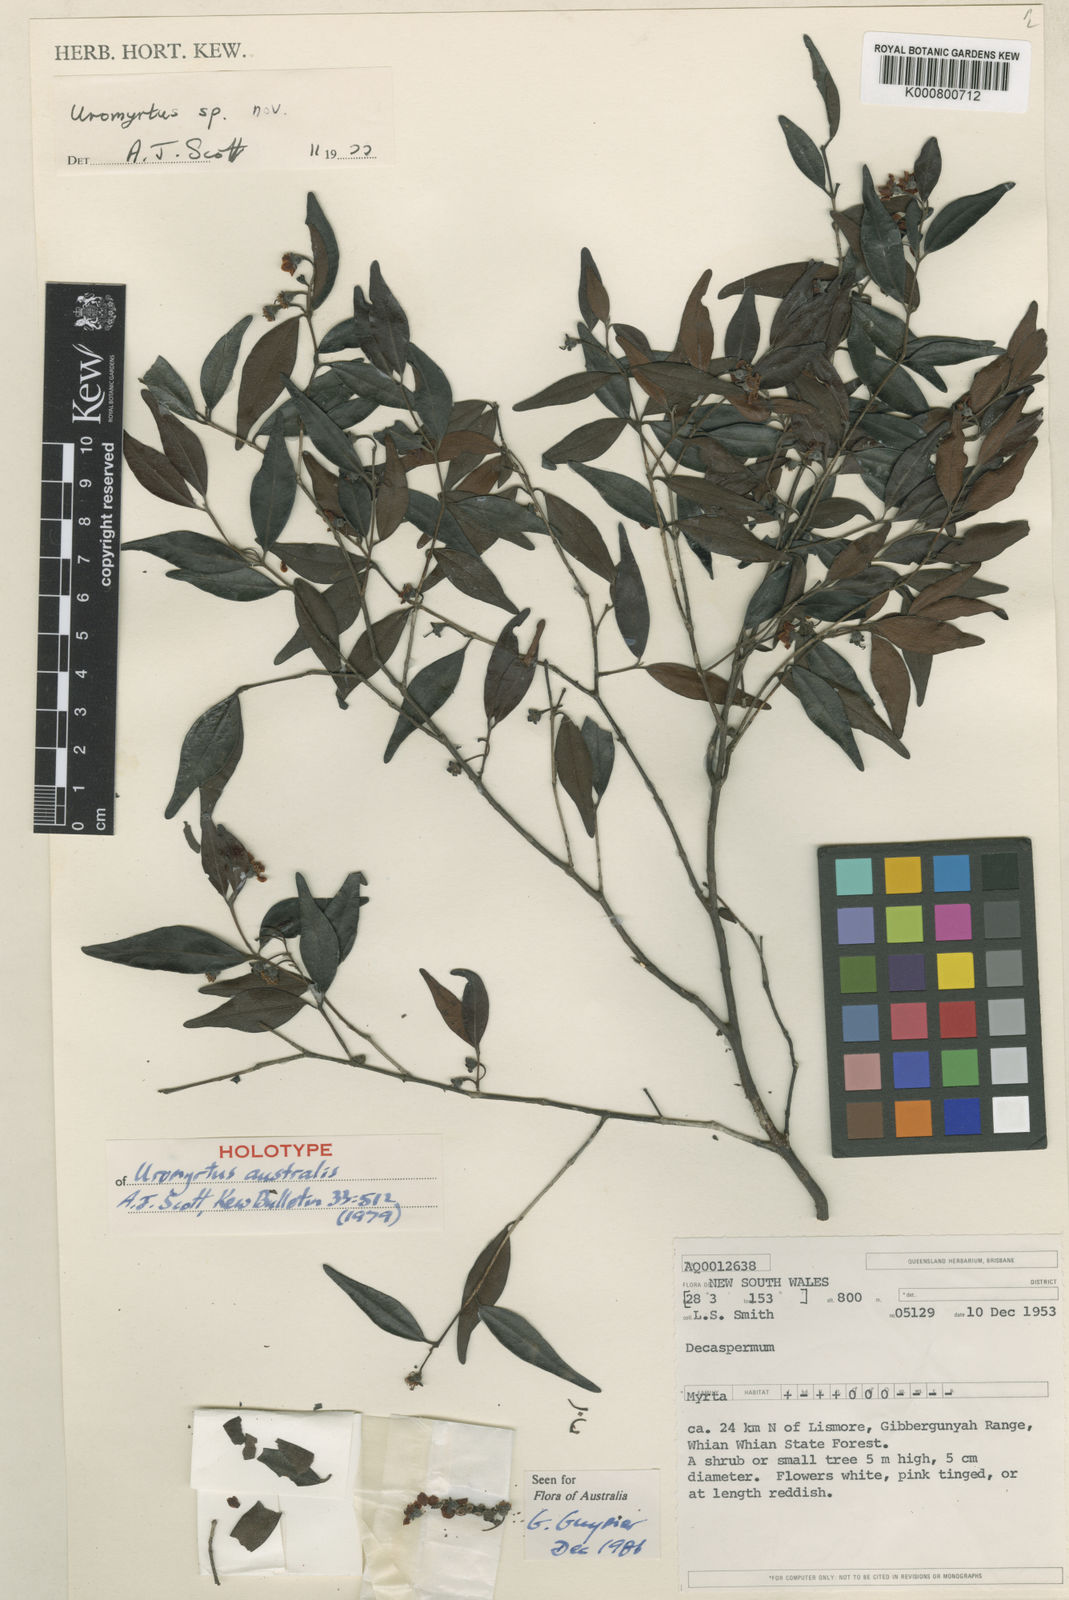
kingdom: Plantae
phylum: Tracheophyta
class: Magnoliopsida
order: Myrtales
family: Myrtaceae
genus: Uromyrtus
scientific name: Uromyrtus australis
